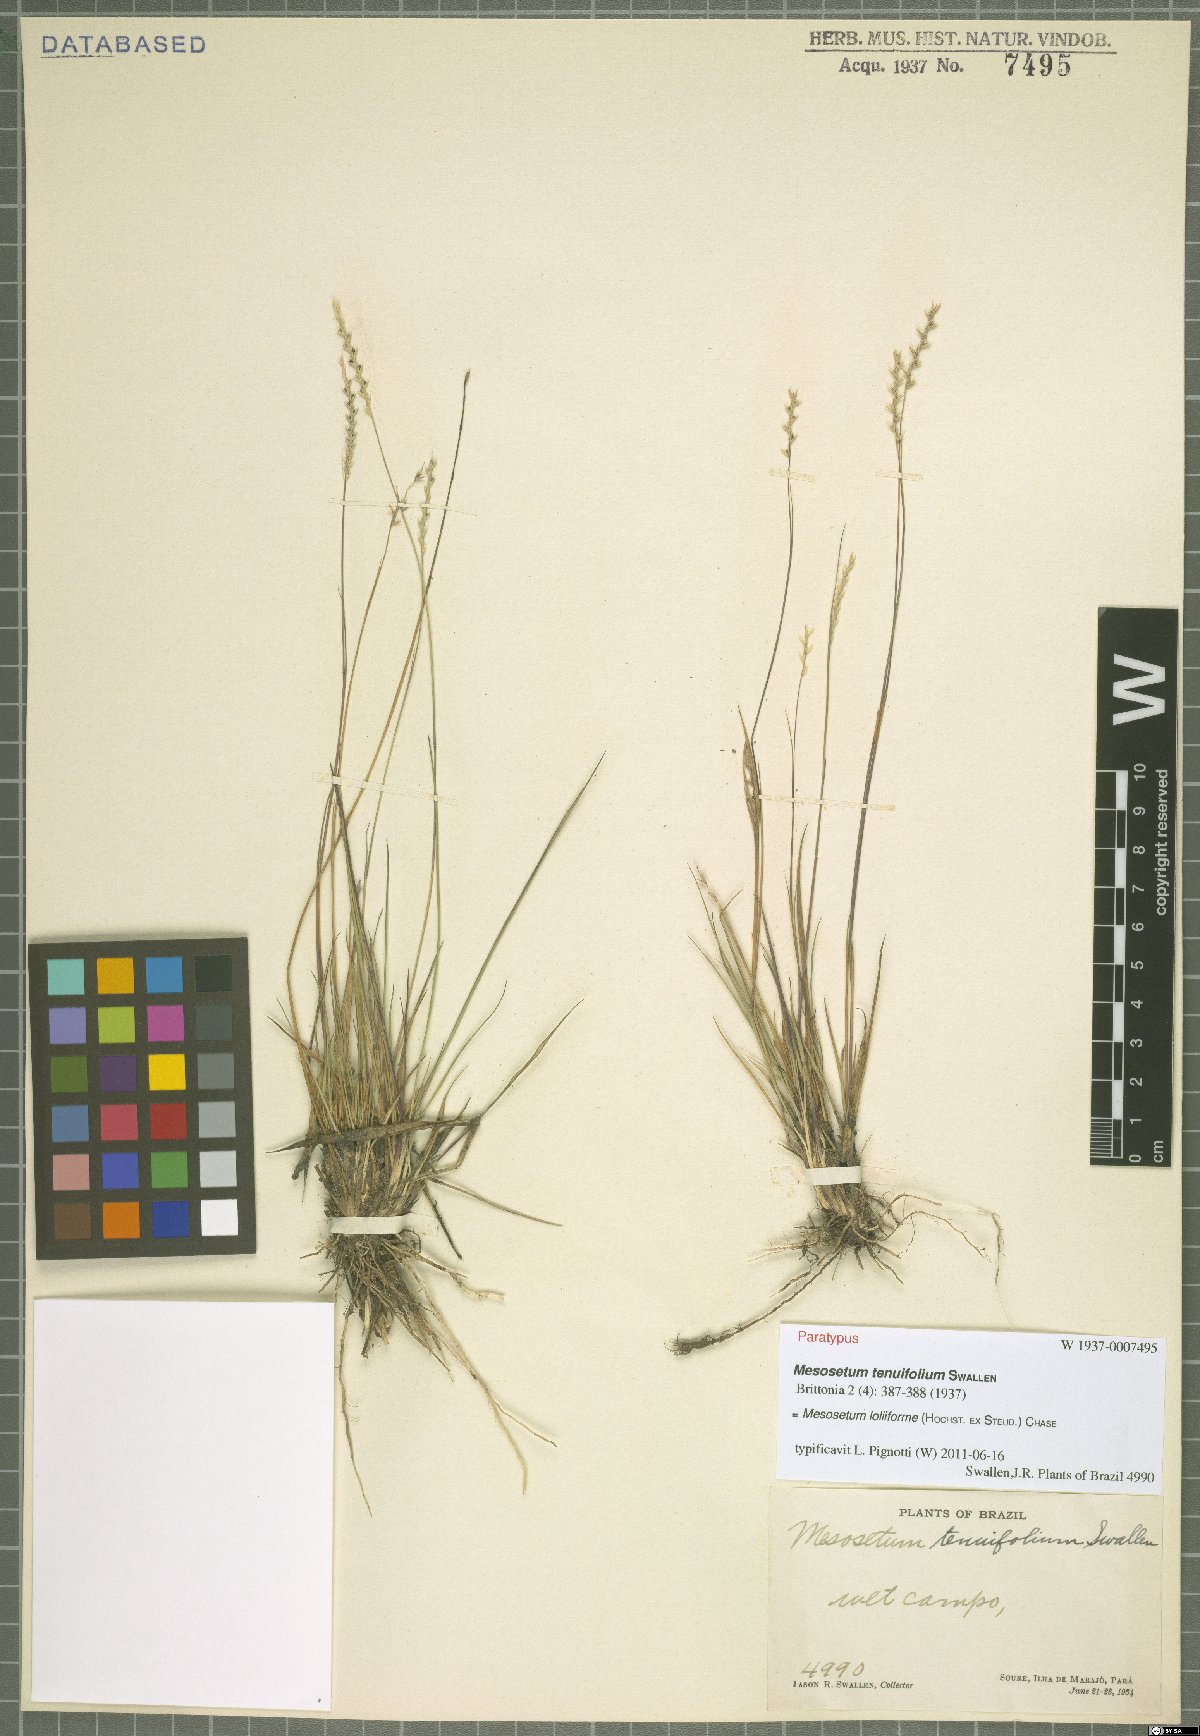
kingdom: Plantae
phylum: Tracheophyta
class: Liliopsida
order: Poales
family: Poaceae
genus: Mesosetum
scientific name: Mesosetum loliiforme
